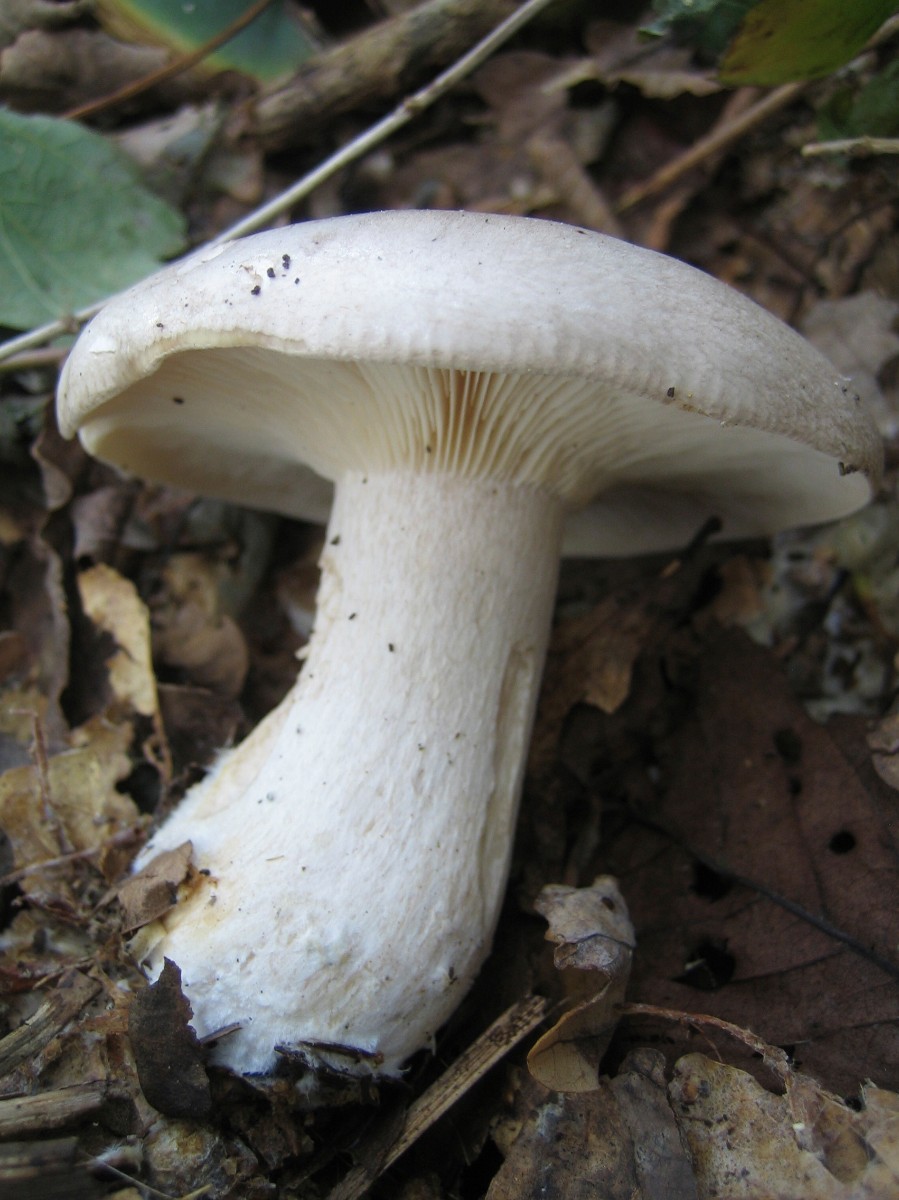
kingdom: Fungi
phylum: Basidiomycota
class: Agaricomycetes
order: Agaricales
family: Tricholomataceae
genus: Clitocybe
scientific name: Clitocybe nebularis
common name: tåge-tragthat
